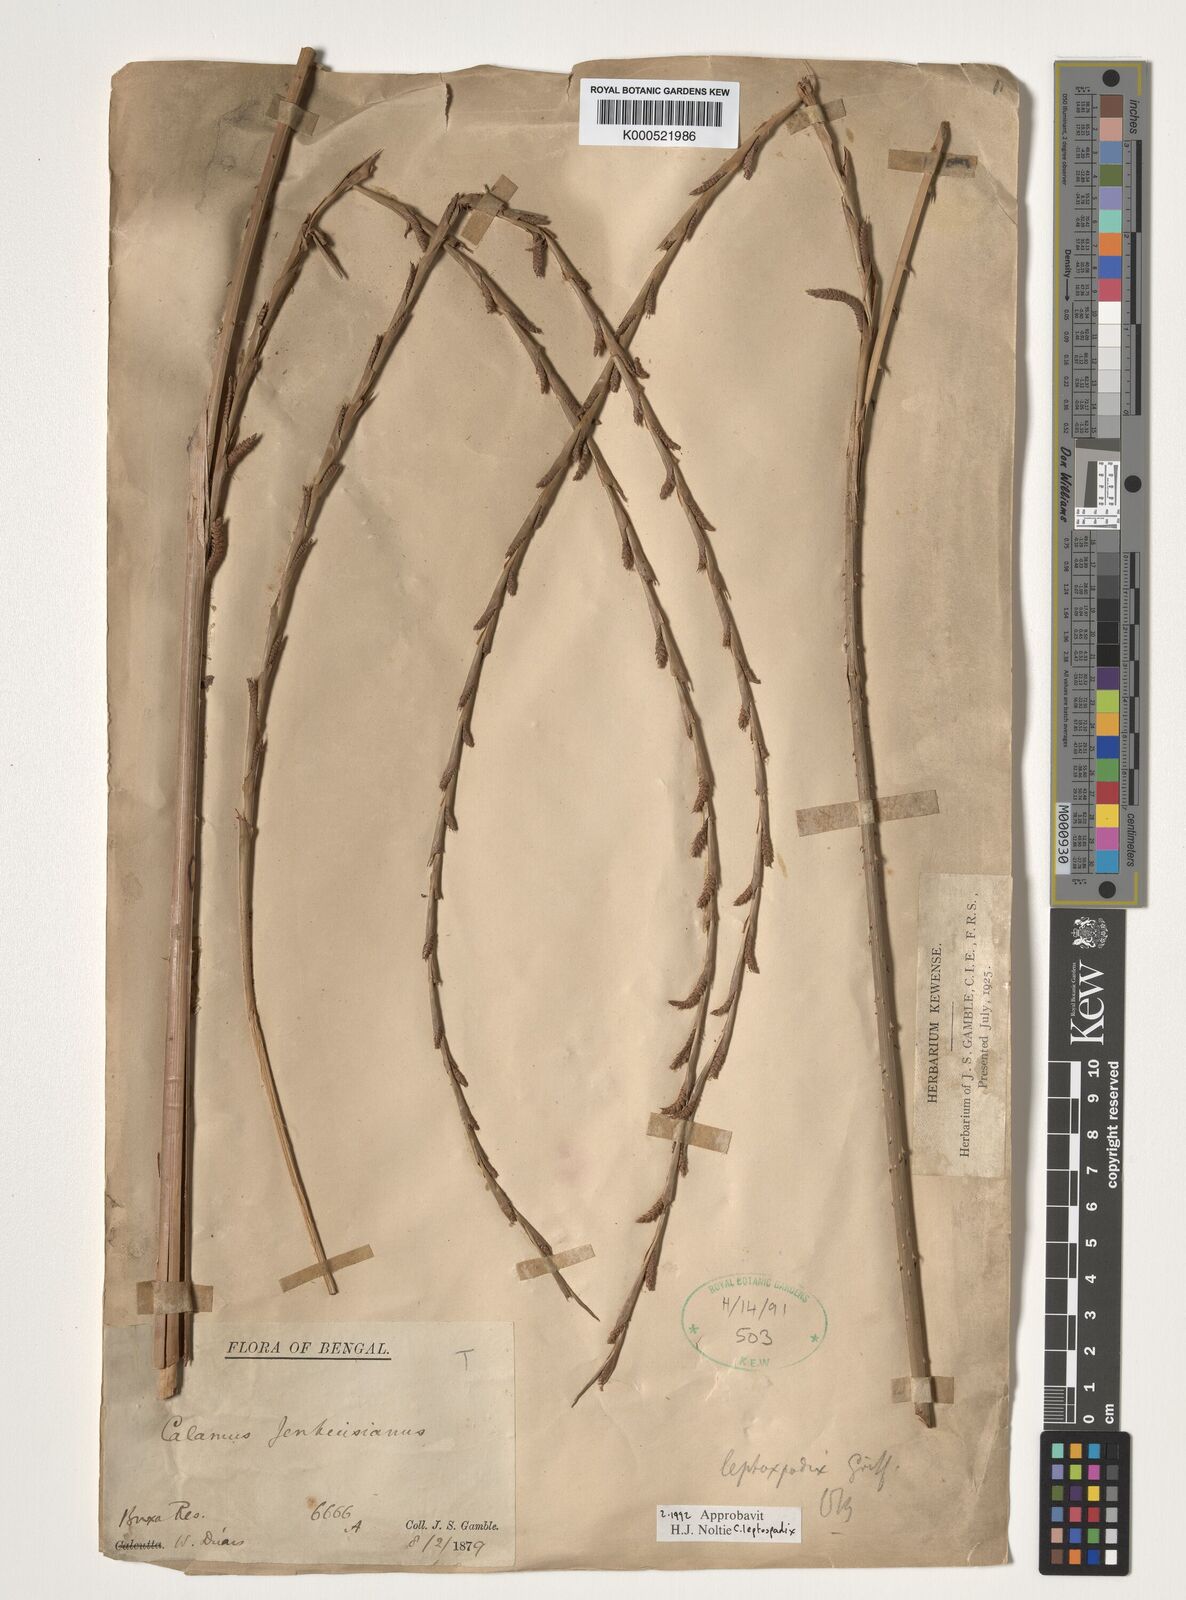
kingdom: Plantae
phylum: Tracheophyta
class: Liliopsida
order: Arecales
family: Arecaceae
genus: Calamus
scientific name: Calamus leptospadix
